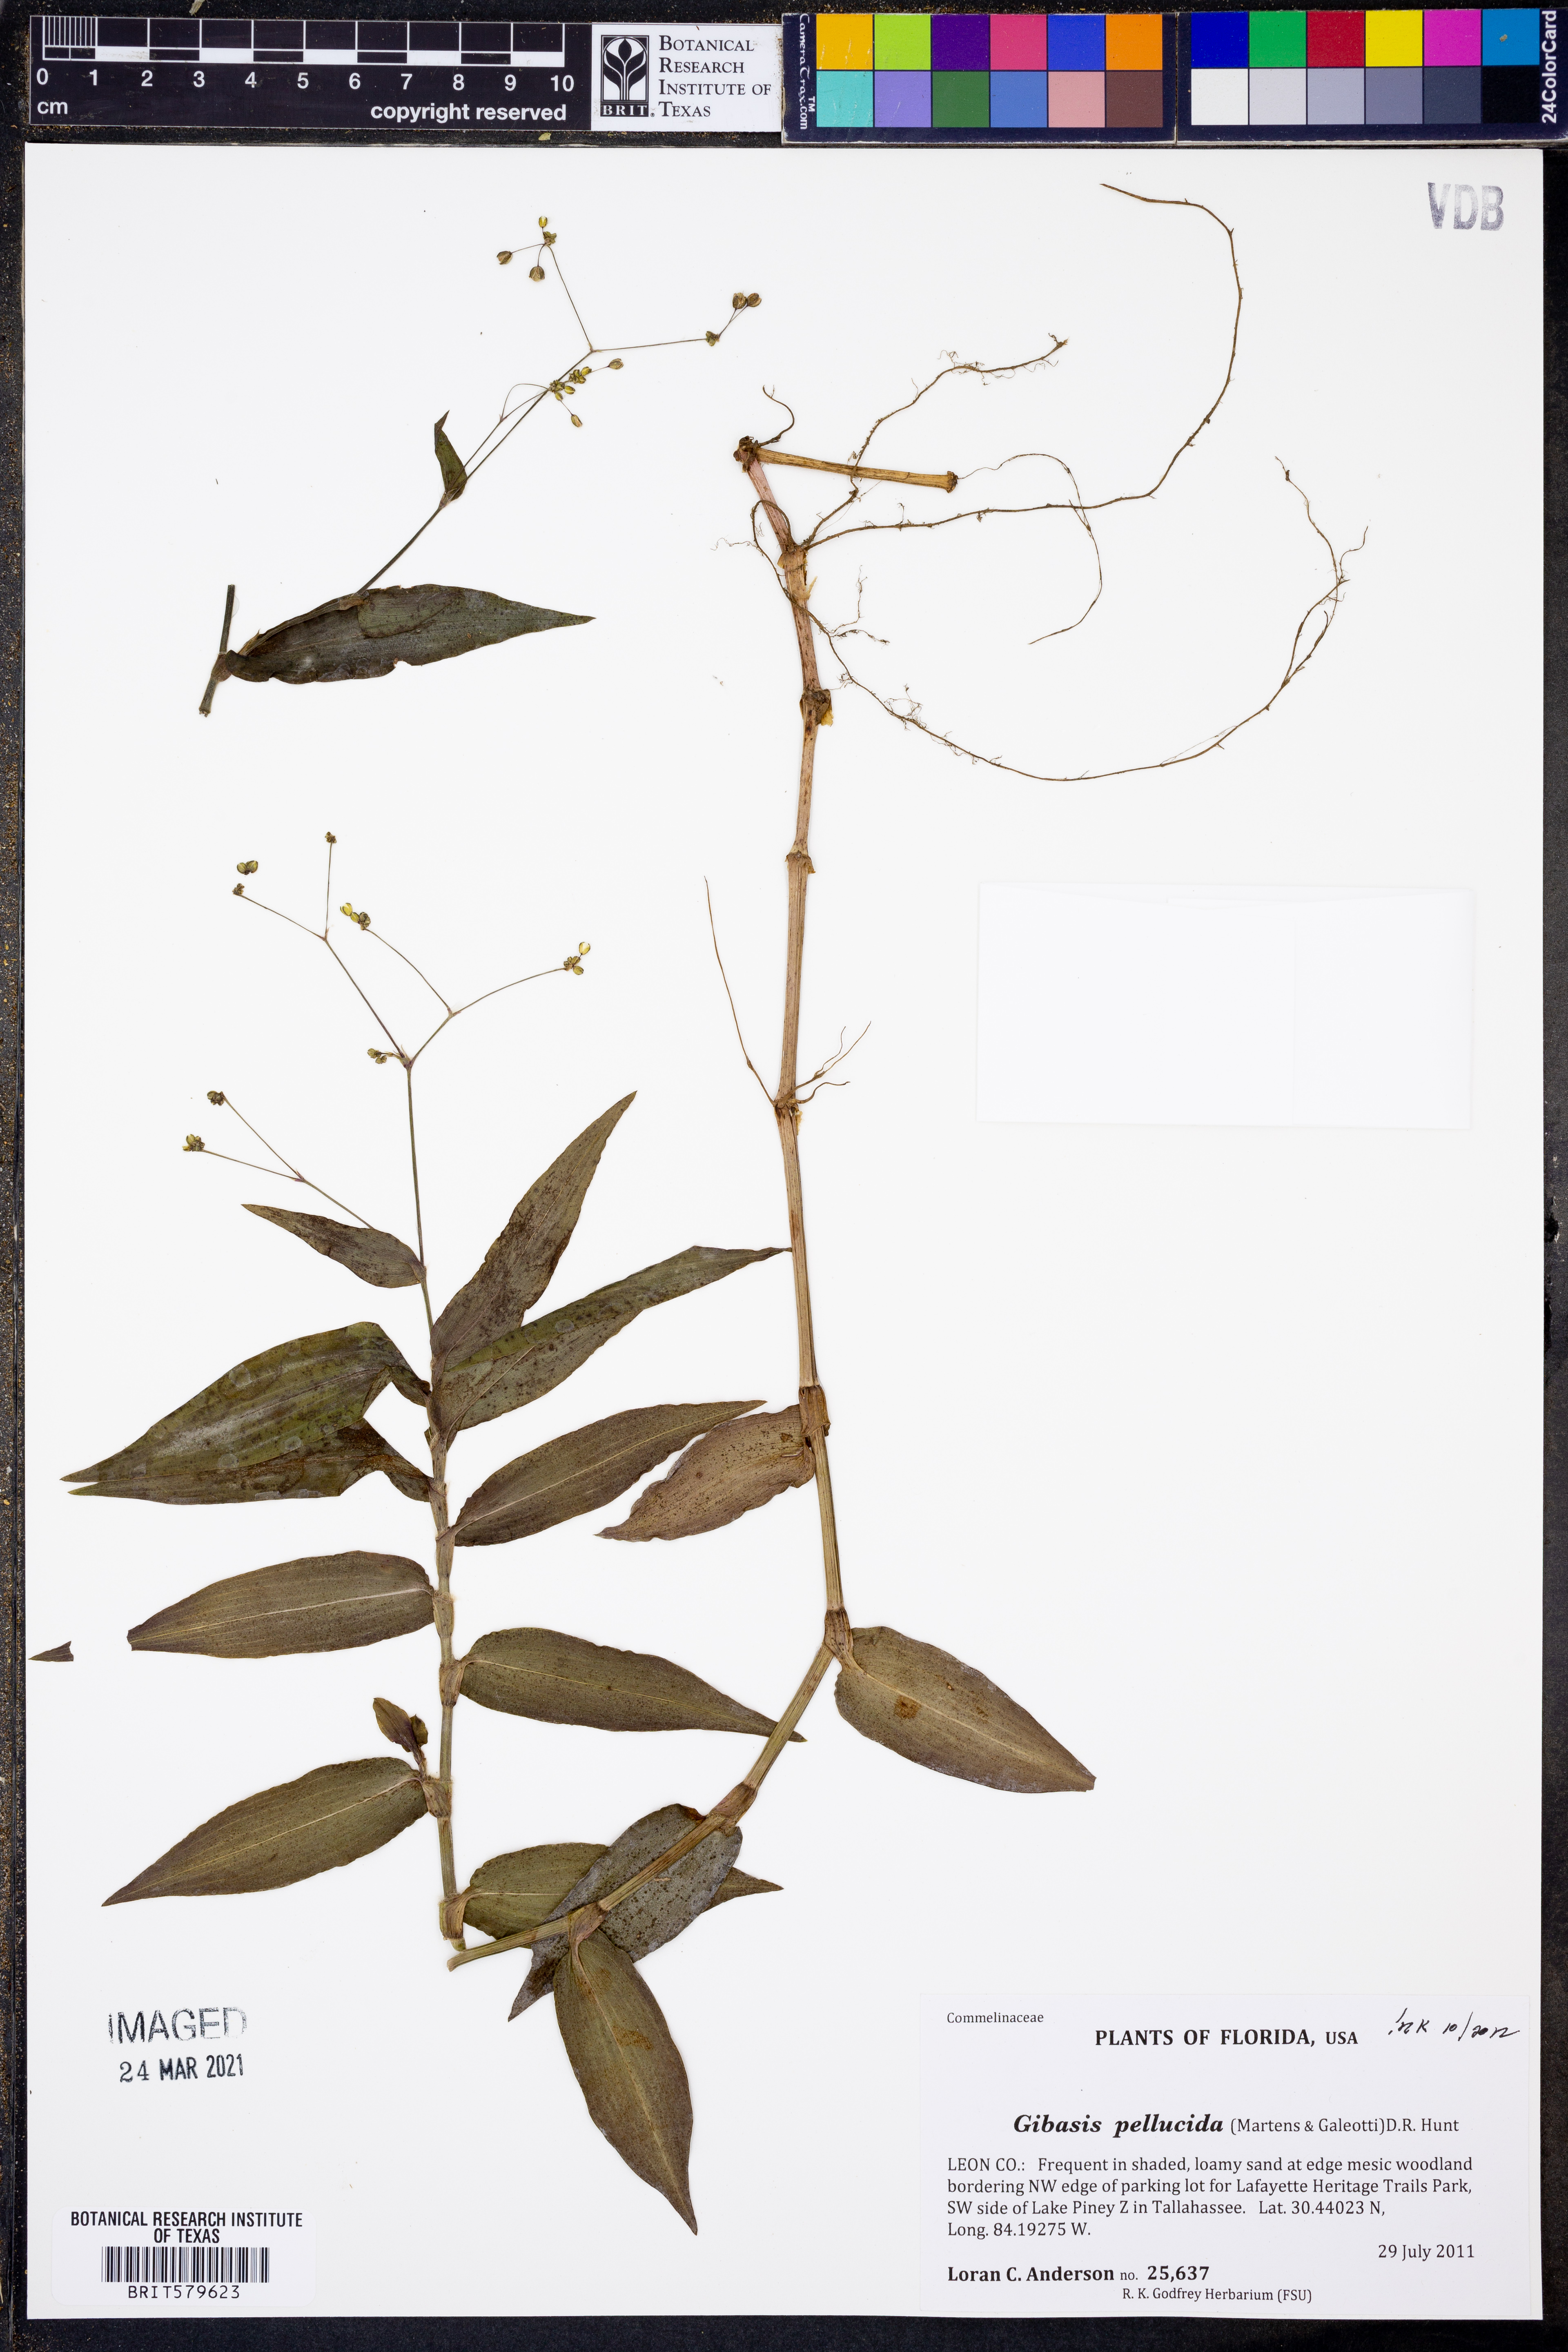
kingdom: Plantae
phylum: Tracheophyta
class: Liliopsida
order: Commelinales
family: Commelinaceae
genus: Gibasis
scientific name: Gibasis pellucida
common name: Dotted bridalveil
